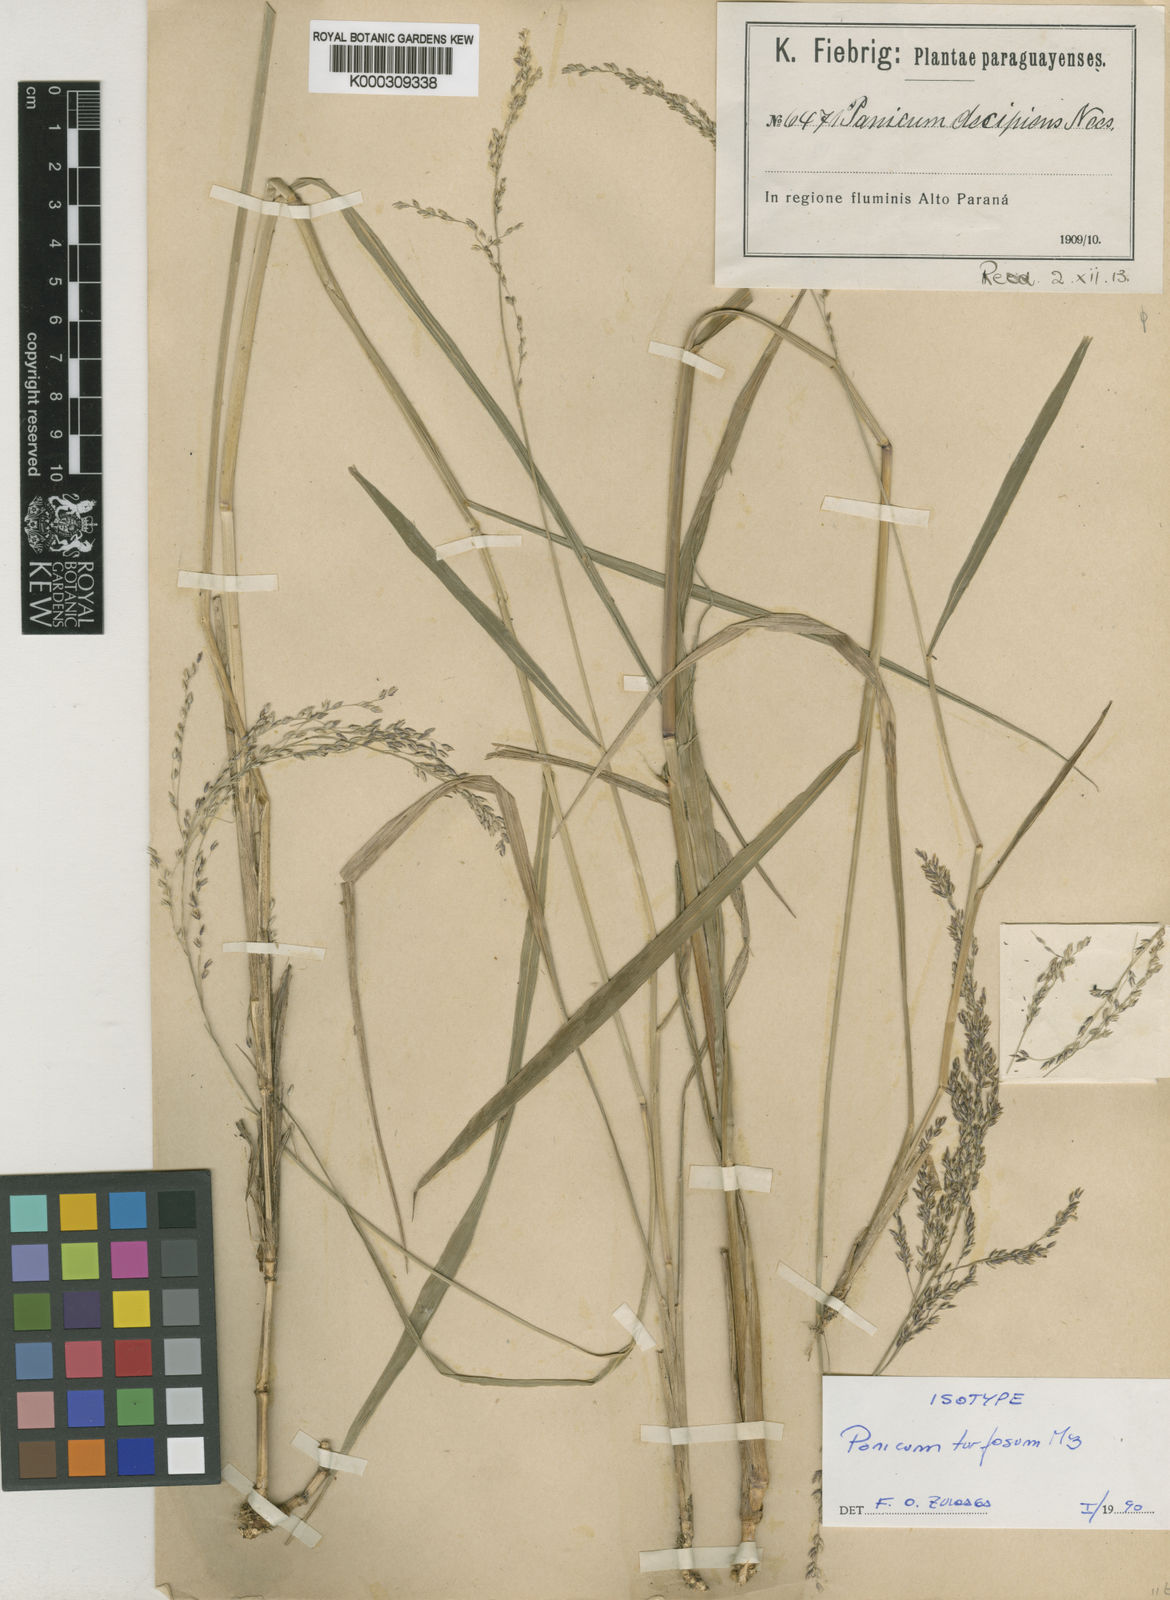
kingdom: Plantae
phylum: Tracheophyta
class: Liliopsida
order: Poales
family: Poaceae
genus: Steinchisma
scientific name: Steinchisma spathellosum
